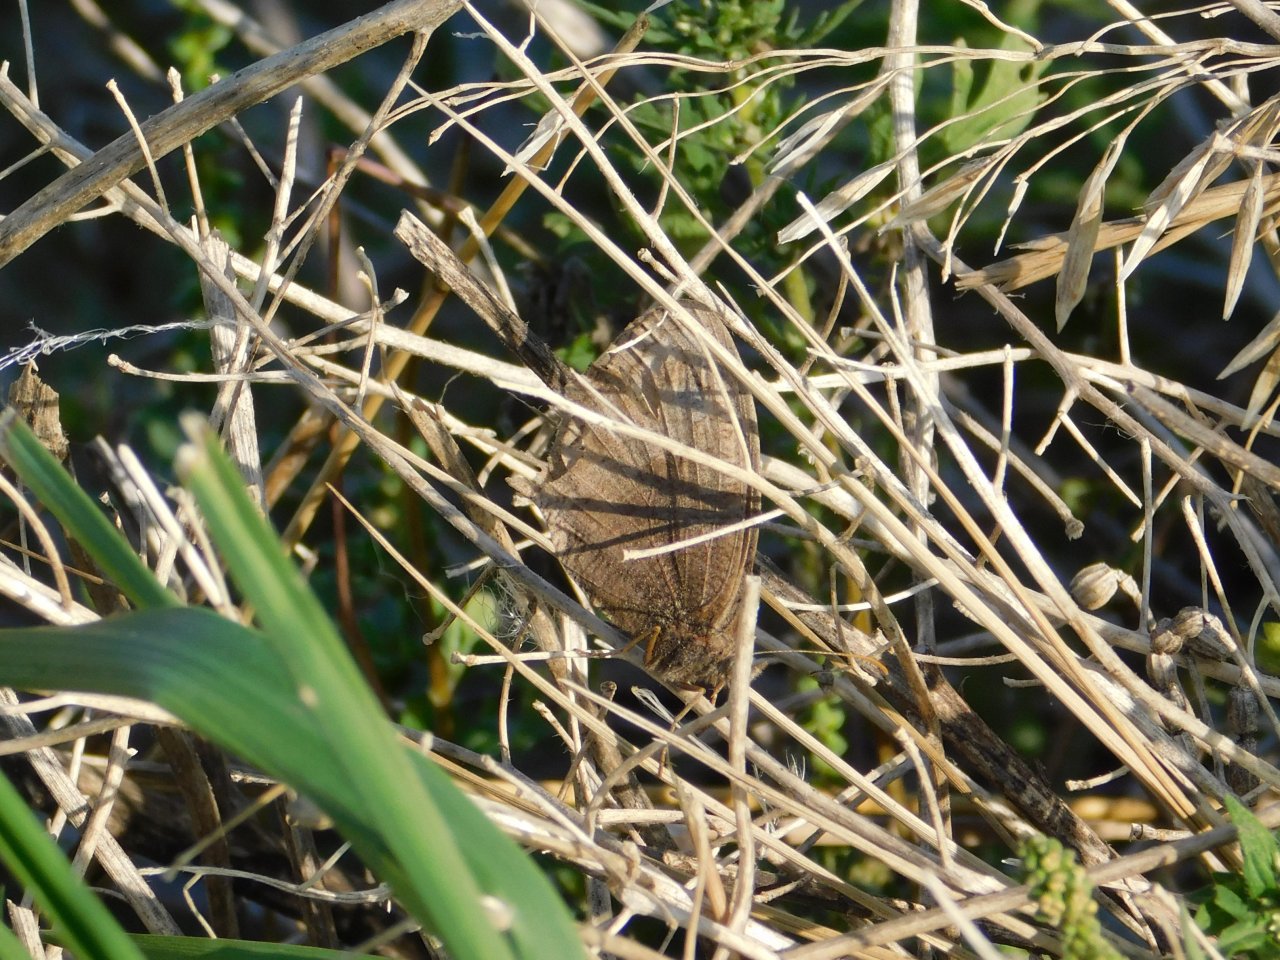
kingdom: Animalia
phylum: Arthropoda
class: Insecta
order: Lepidoptera
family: Nymphalidae
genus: Cercyonis
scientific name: Cercyonis pegala
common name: Common Wood-Nymph
